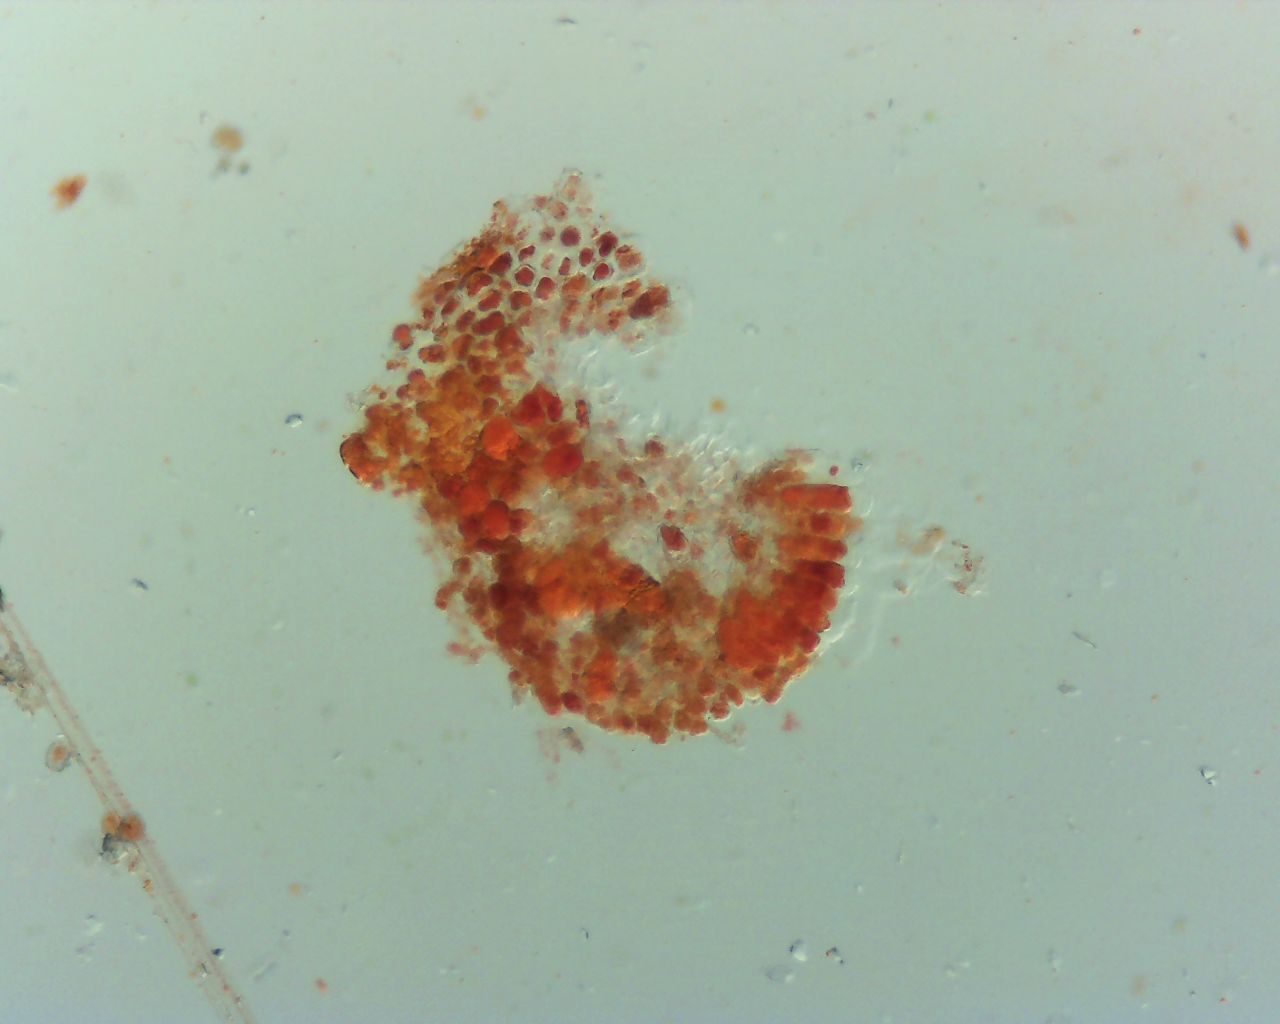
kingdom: Fungi
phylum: Basidiomycota
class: Pucciniomycetes
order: Pucciniales
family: Coleosporiaceae
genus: Coleosporium
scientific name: Coleosporium tussilaginis
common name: almindelig fyrrenålerust
